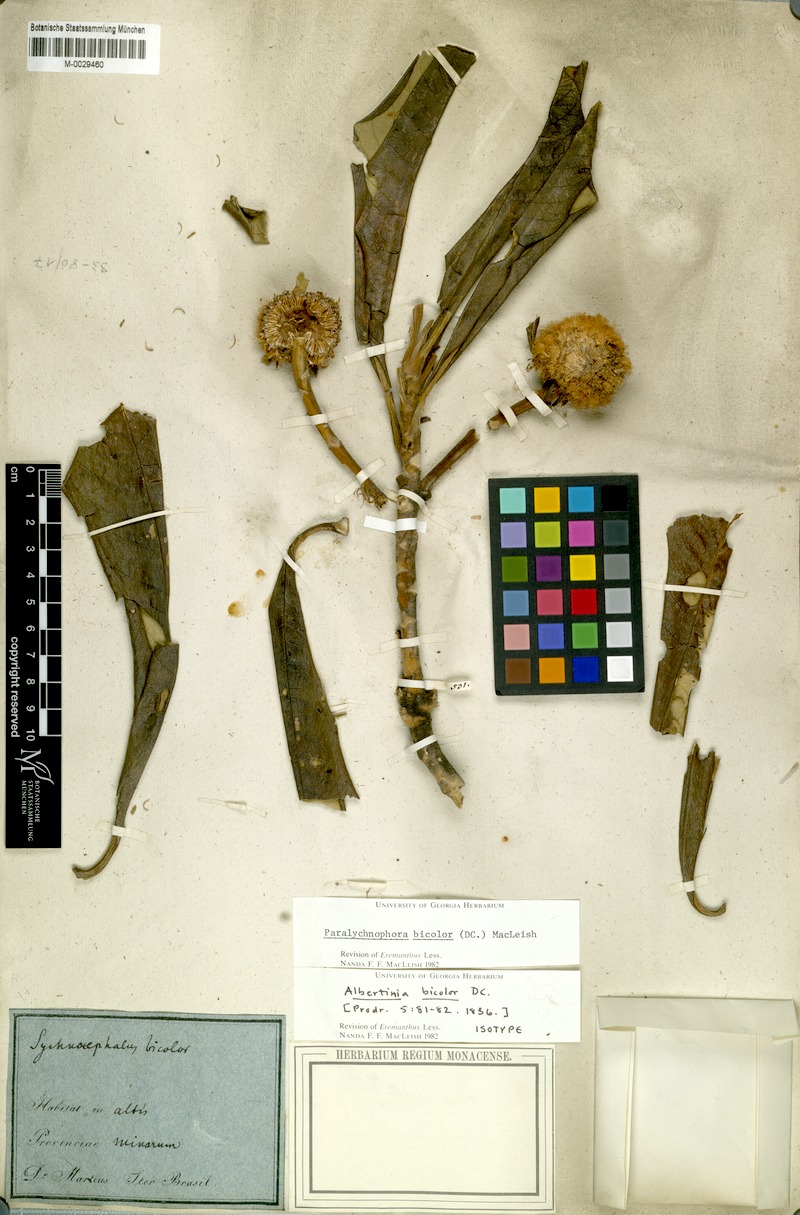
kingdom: Plantae
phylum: Tracheophyta
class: Magnoliopsida
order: Asterales
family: Asteraceae
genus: Paralychnophora
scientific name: Paralychnophora bicolor
